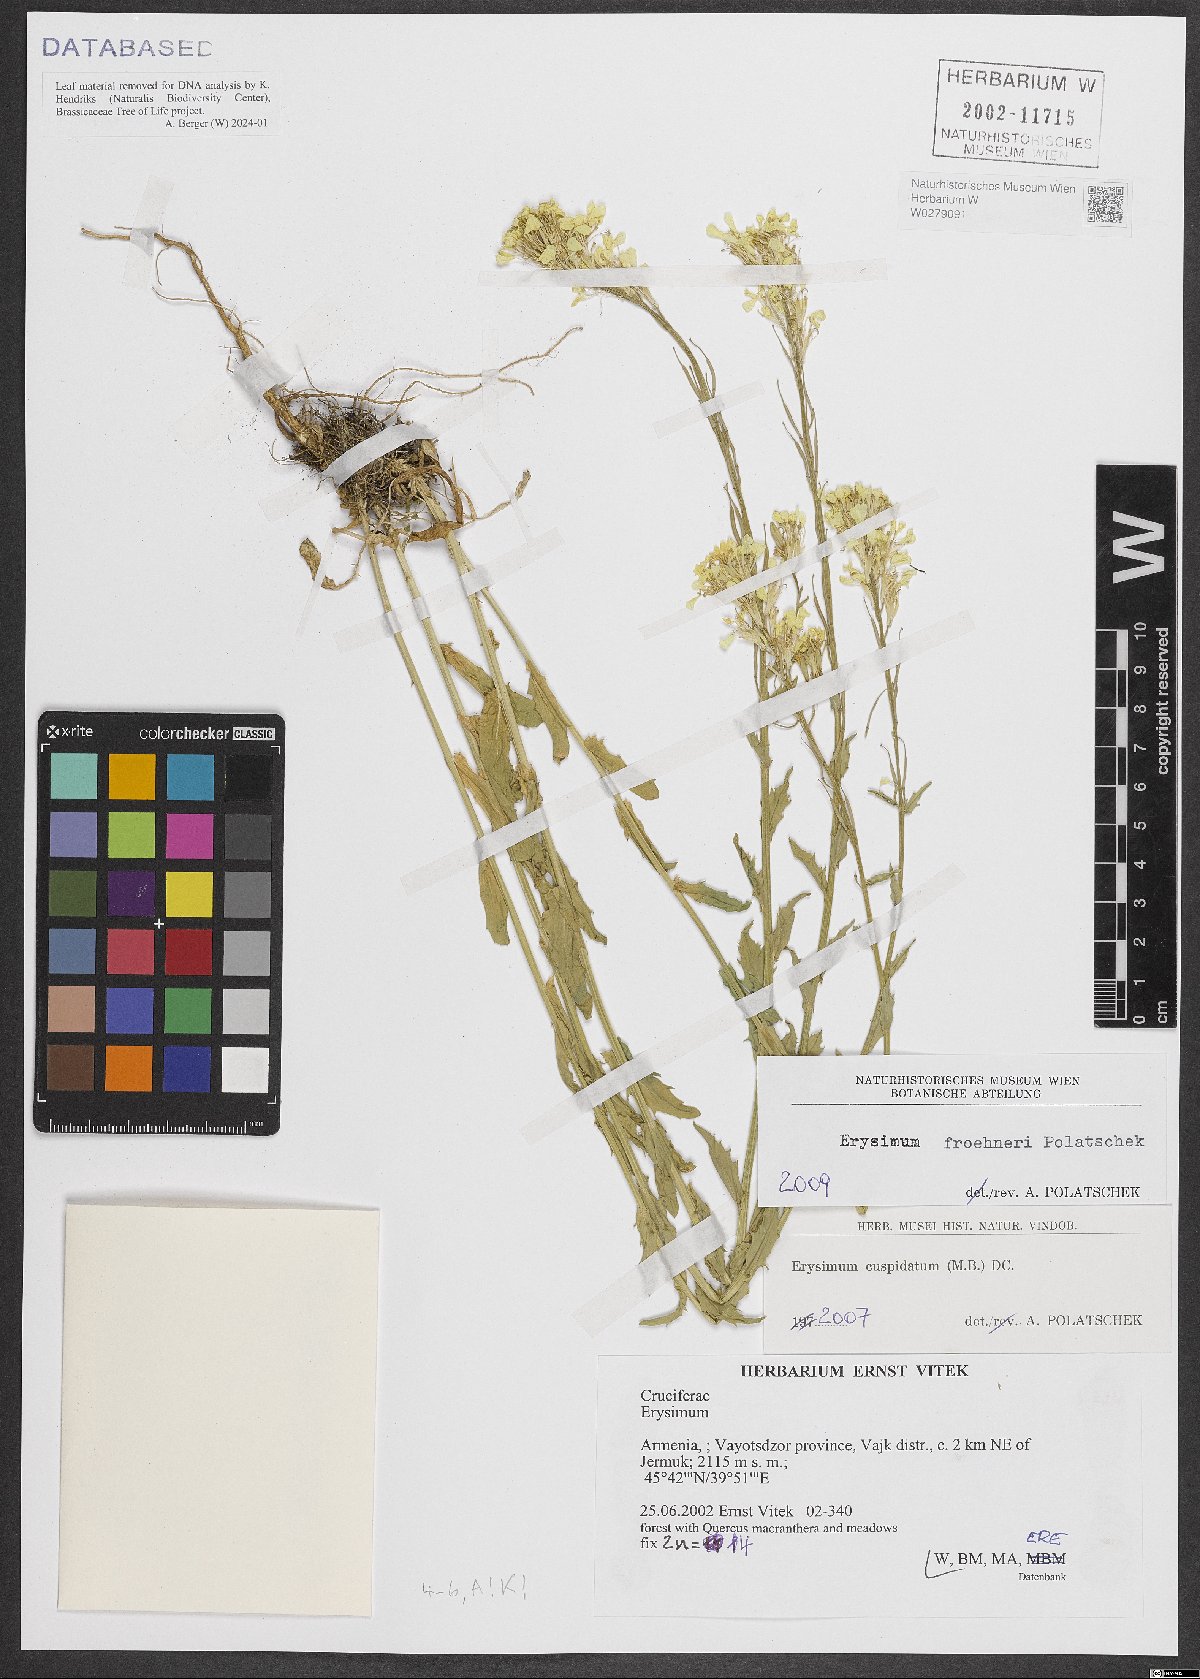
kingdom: Plantae
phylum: Tracheophyta
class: Magnoliopsida
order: Brassicales
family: Brassicaceae
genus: Erysimum
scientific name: Erysimum froehneri
